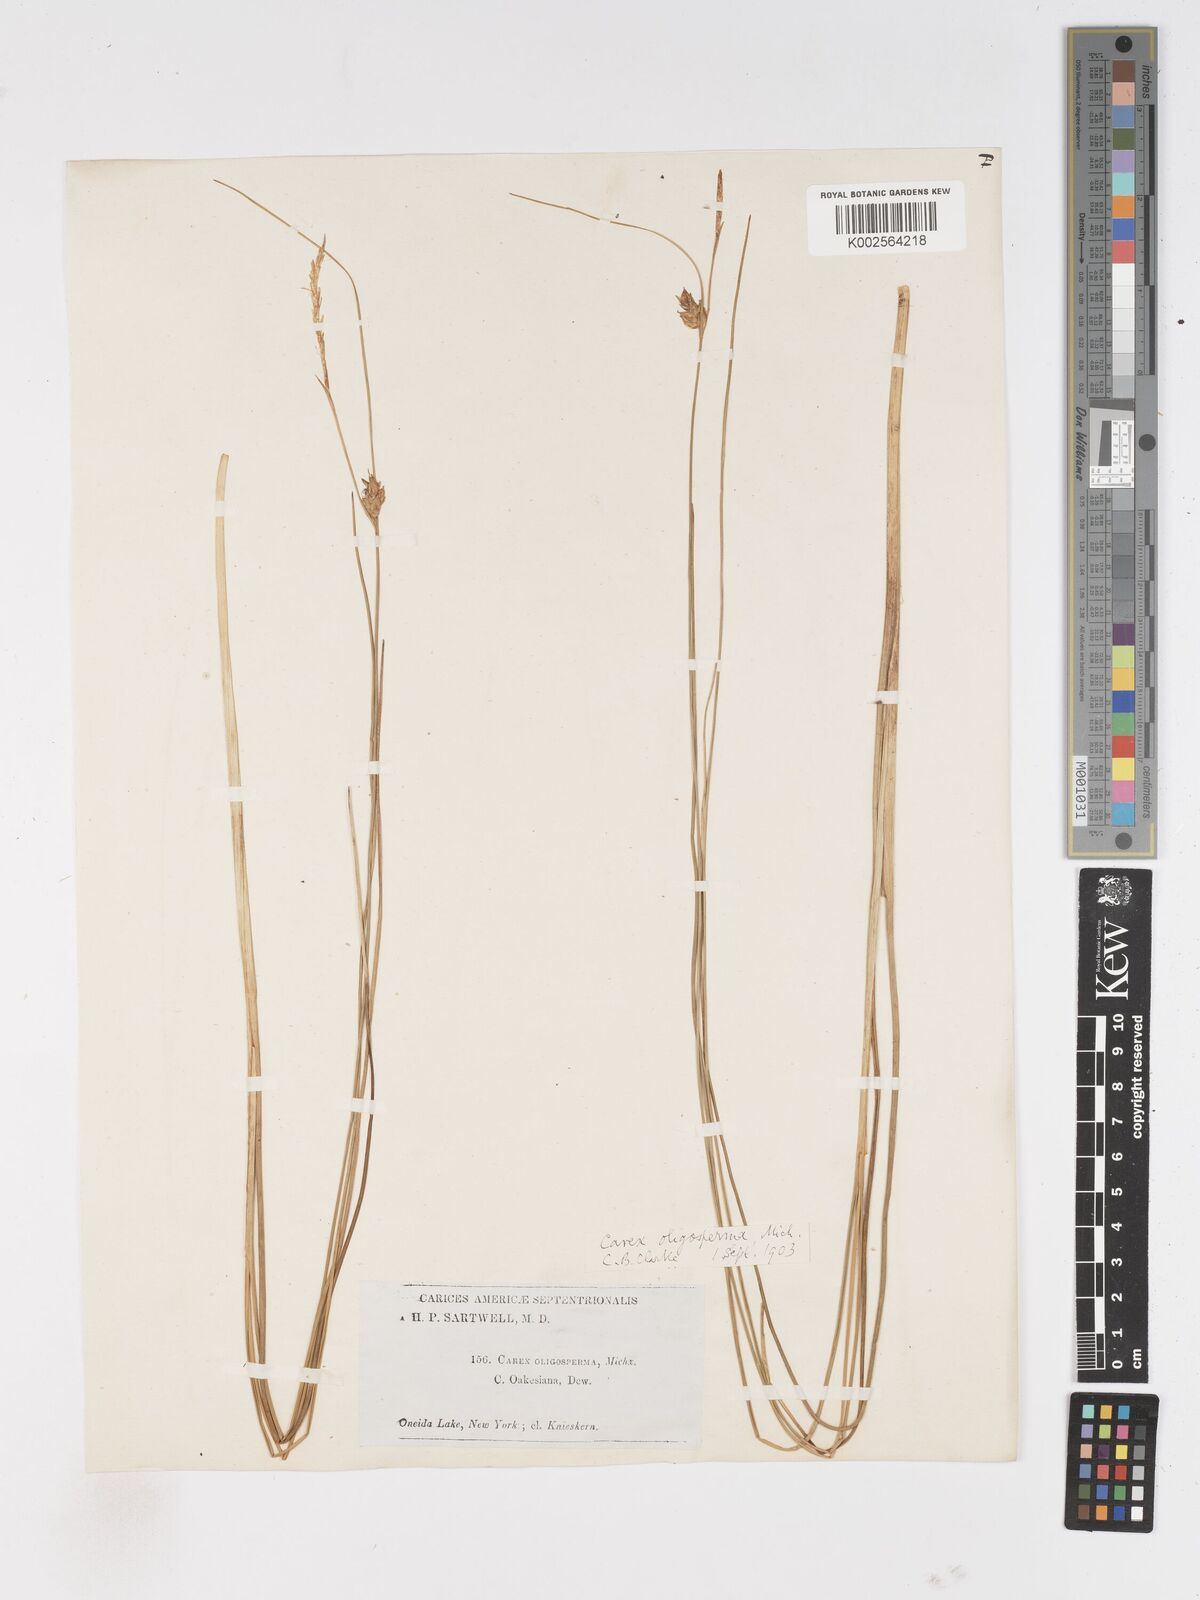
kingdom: Plantae
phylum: Tracheophyta
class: Liliopsida
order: Poales
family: Cyperaceae
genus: Carex
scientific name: Carex oligosperma
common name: Few-seed sedge
